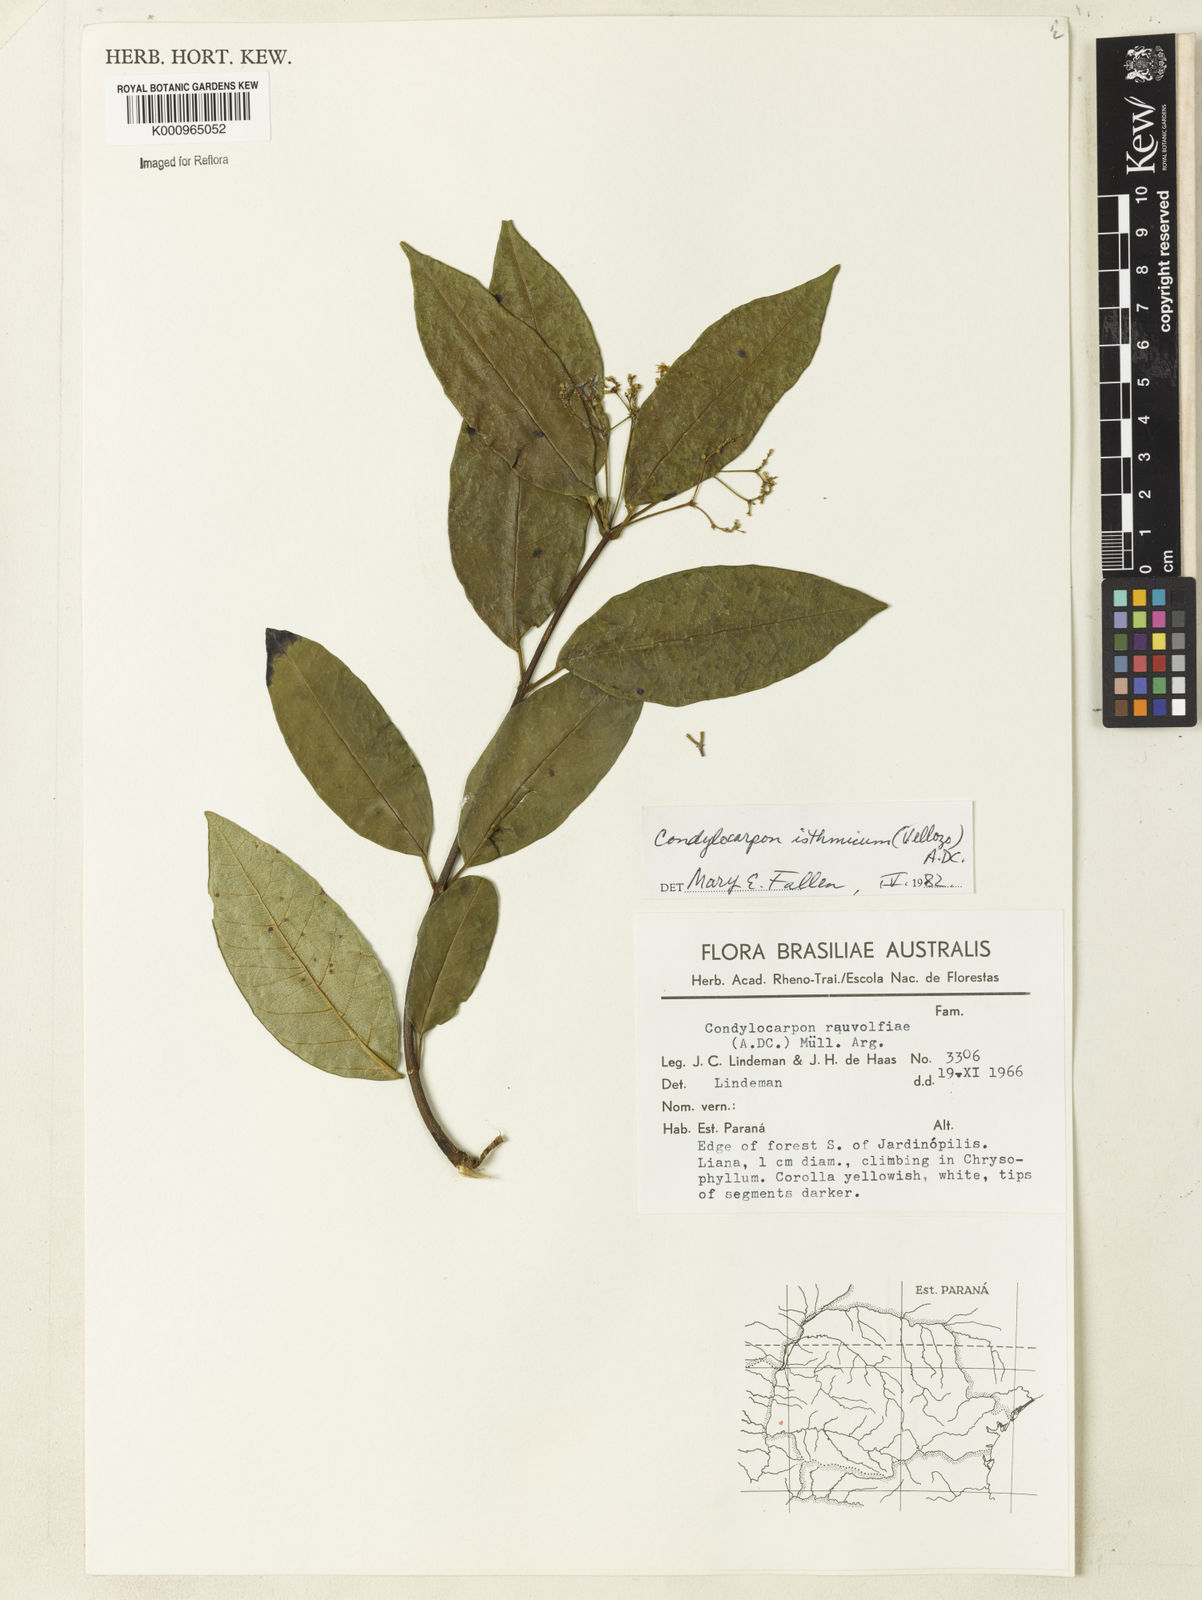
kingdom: Plantae
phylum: Tracheophyta
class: Magnoliopsida
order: Gentianales
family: Apocynaceae
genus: Condylocarpon
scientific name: Condylocarpon isthmicum
